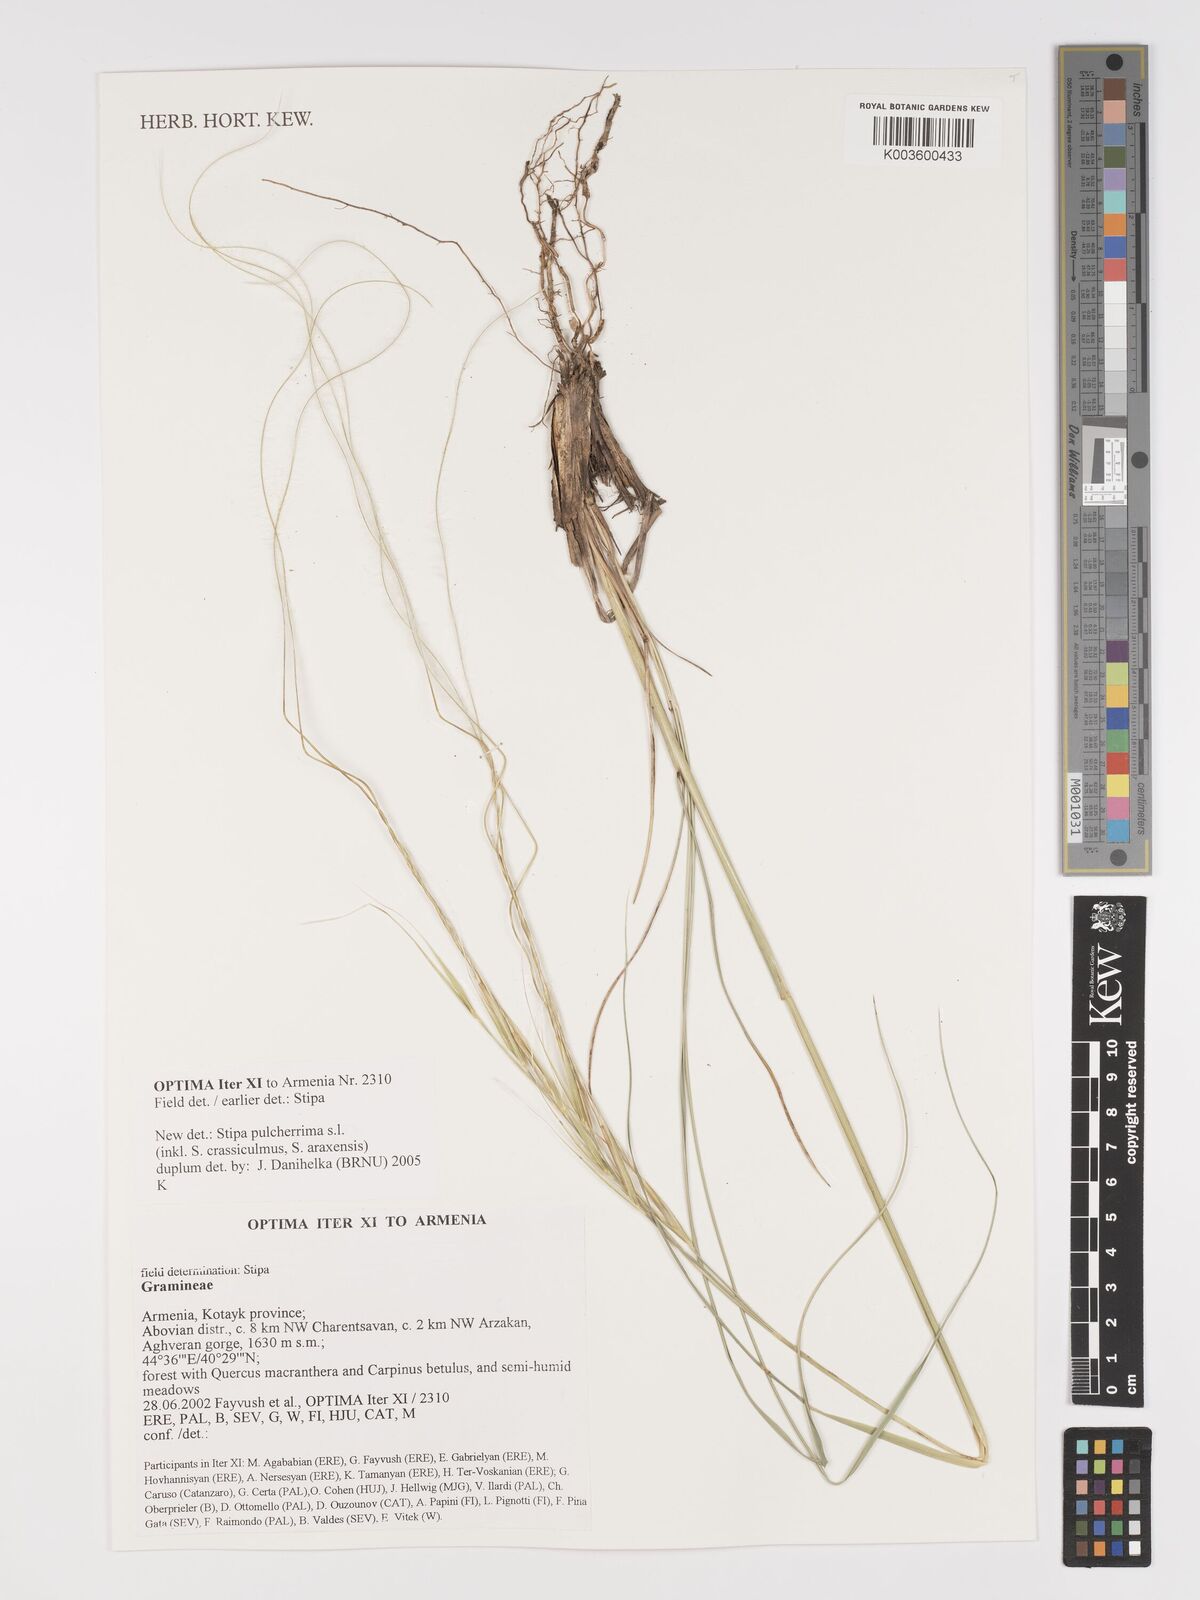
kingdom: Plantae
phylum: Tracheophyta
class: Liliopsida
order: Poales
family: Poaceae
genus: Stipa
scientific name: Stipa pulcherrima
